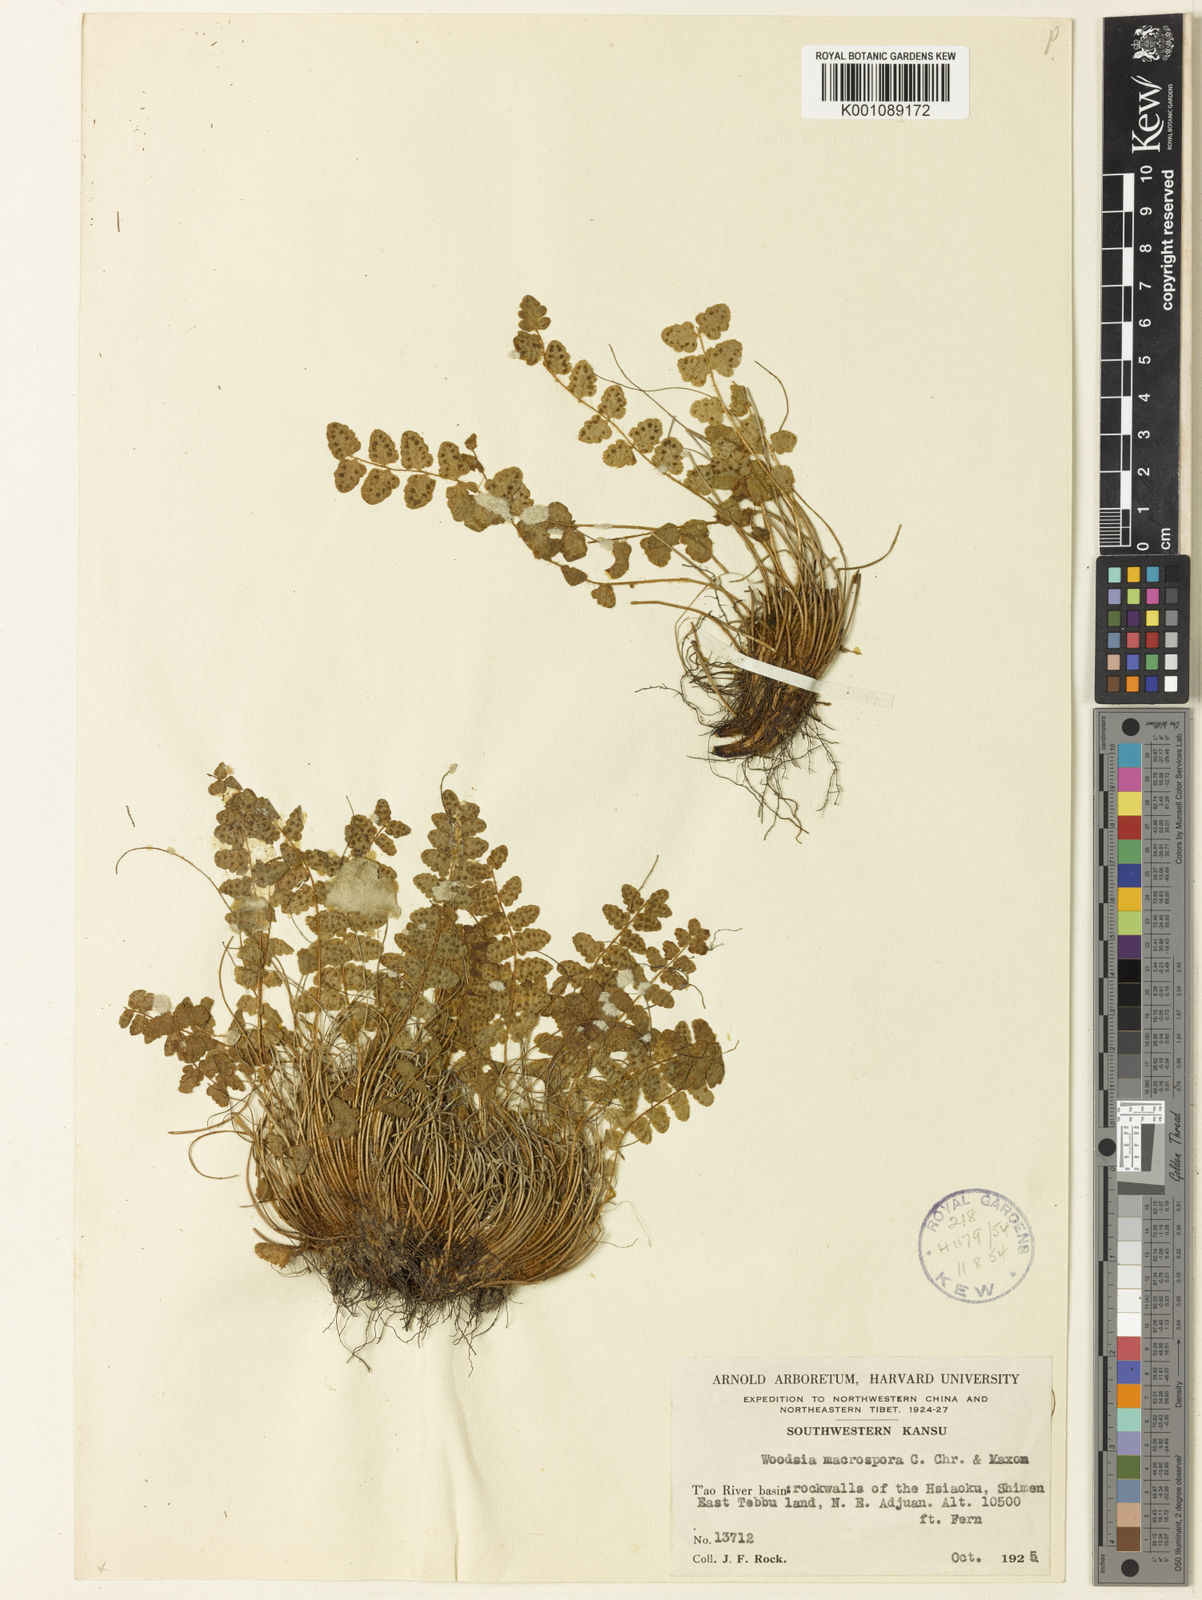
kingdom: Plantae
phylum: Tracheophyta
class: Polypodiopsida
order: Polypodiales
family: Woodsiaceae
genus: Woodsia
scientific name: Woodsia macrospora
